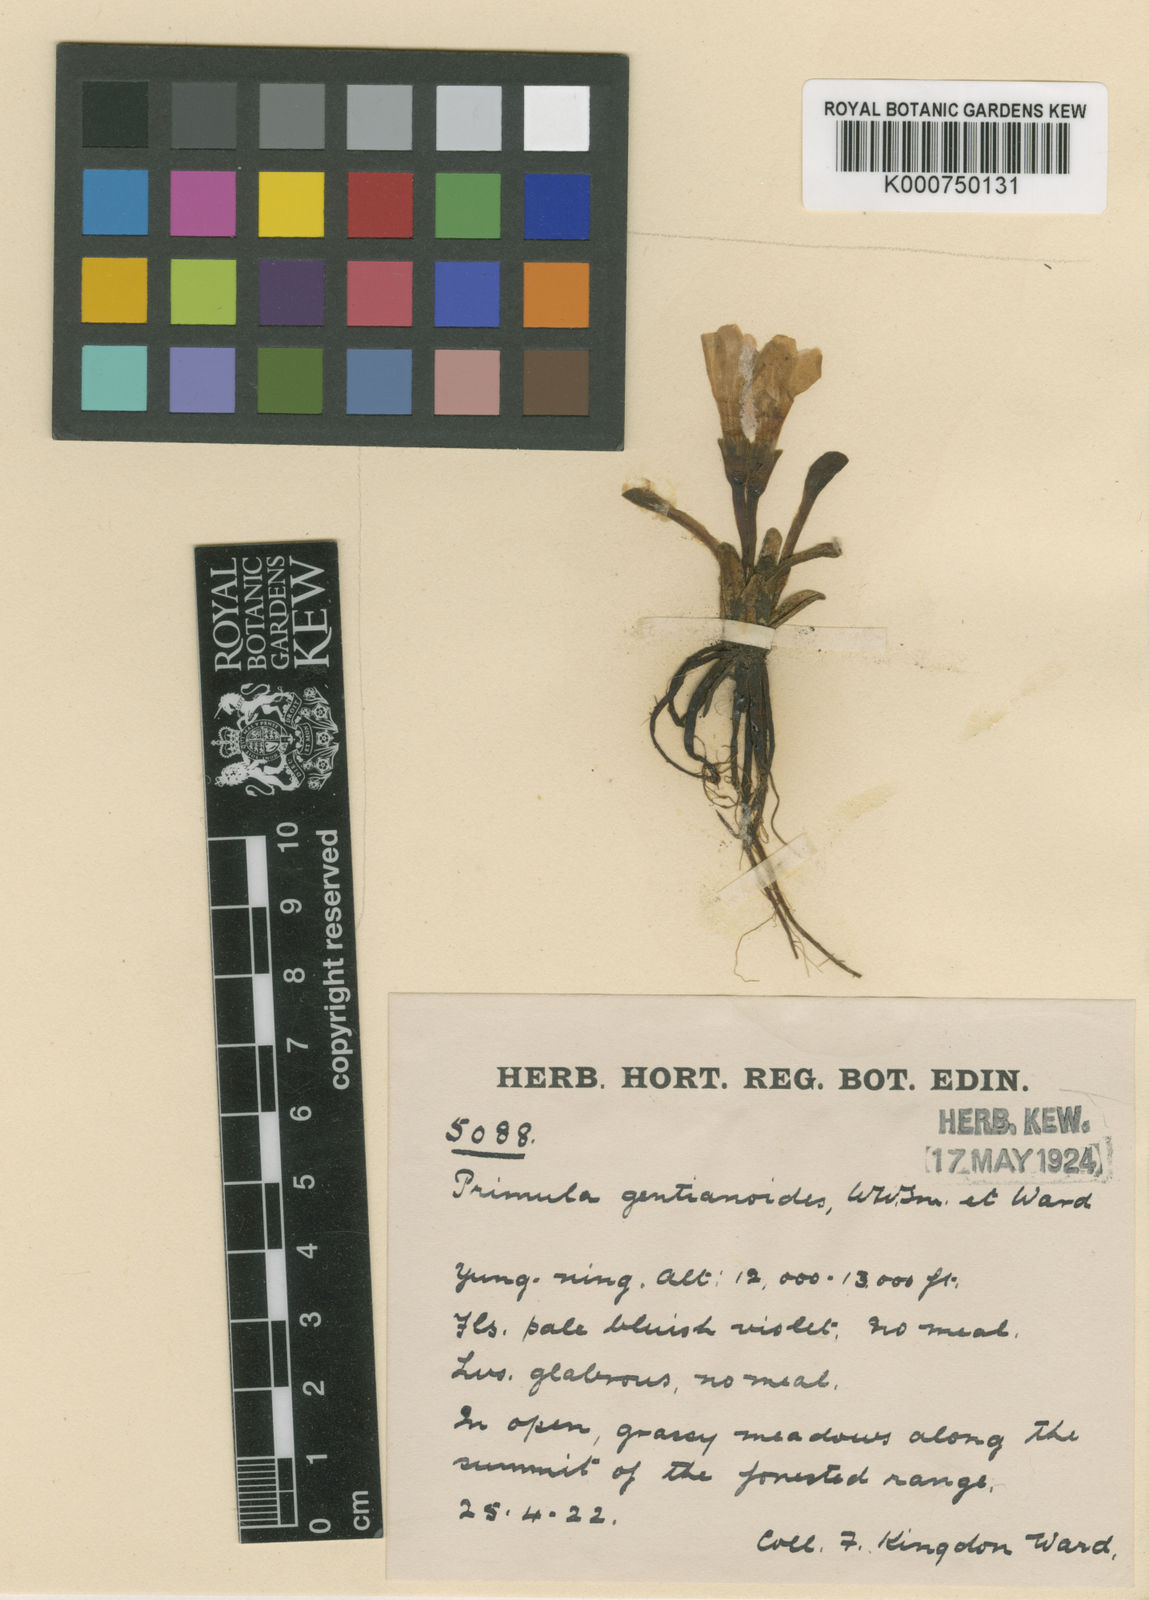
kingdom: Plantae
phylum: Tracheophyta
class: Magnoliopsida
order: Ericales
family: Primulaceae
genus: Primula
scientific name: Primula tongolensis
